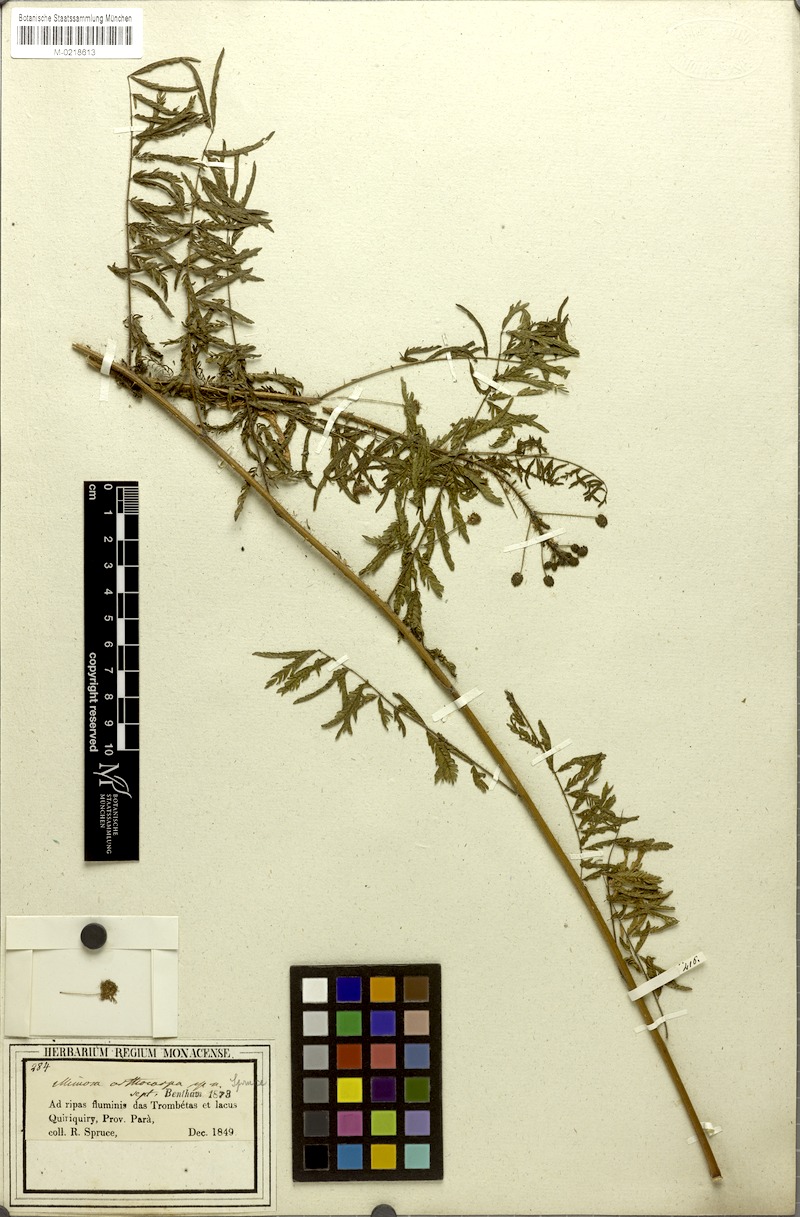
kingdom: Plantae
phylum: Tracheophyta
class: Magnoliopsida
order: Fabales
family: Fabaceae
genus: Mimosa
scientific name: Mimosa orthocarpa
